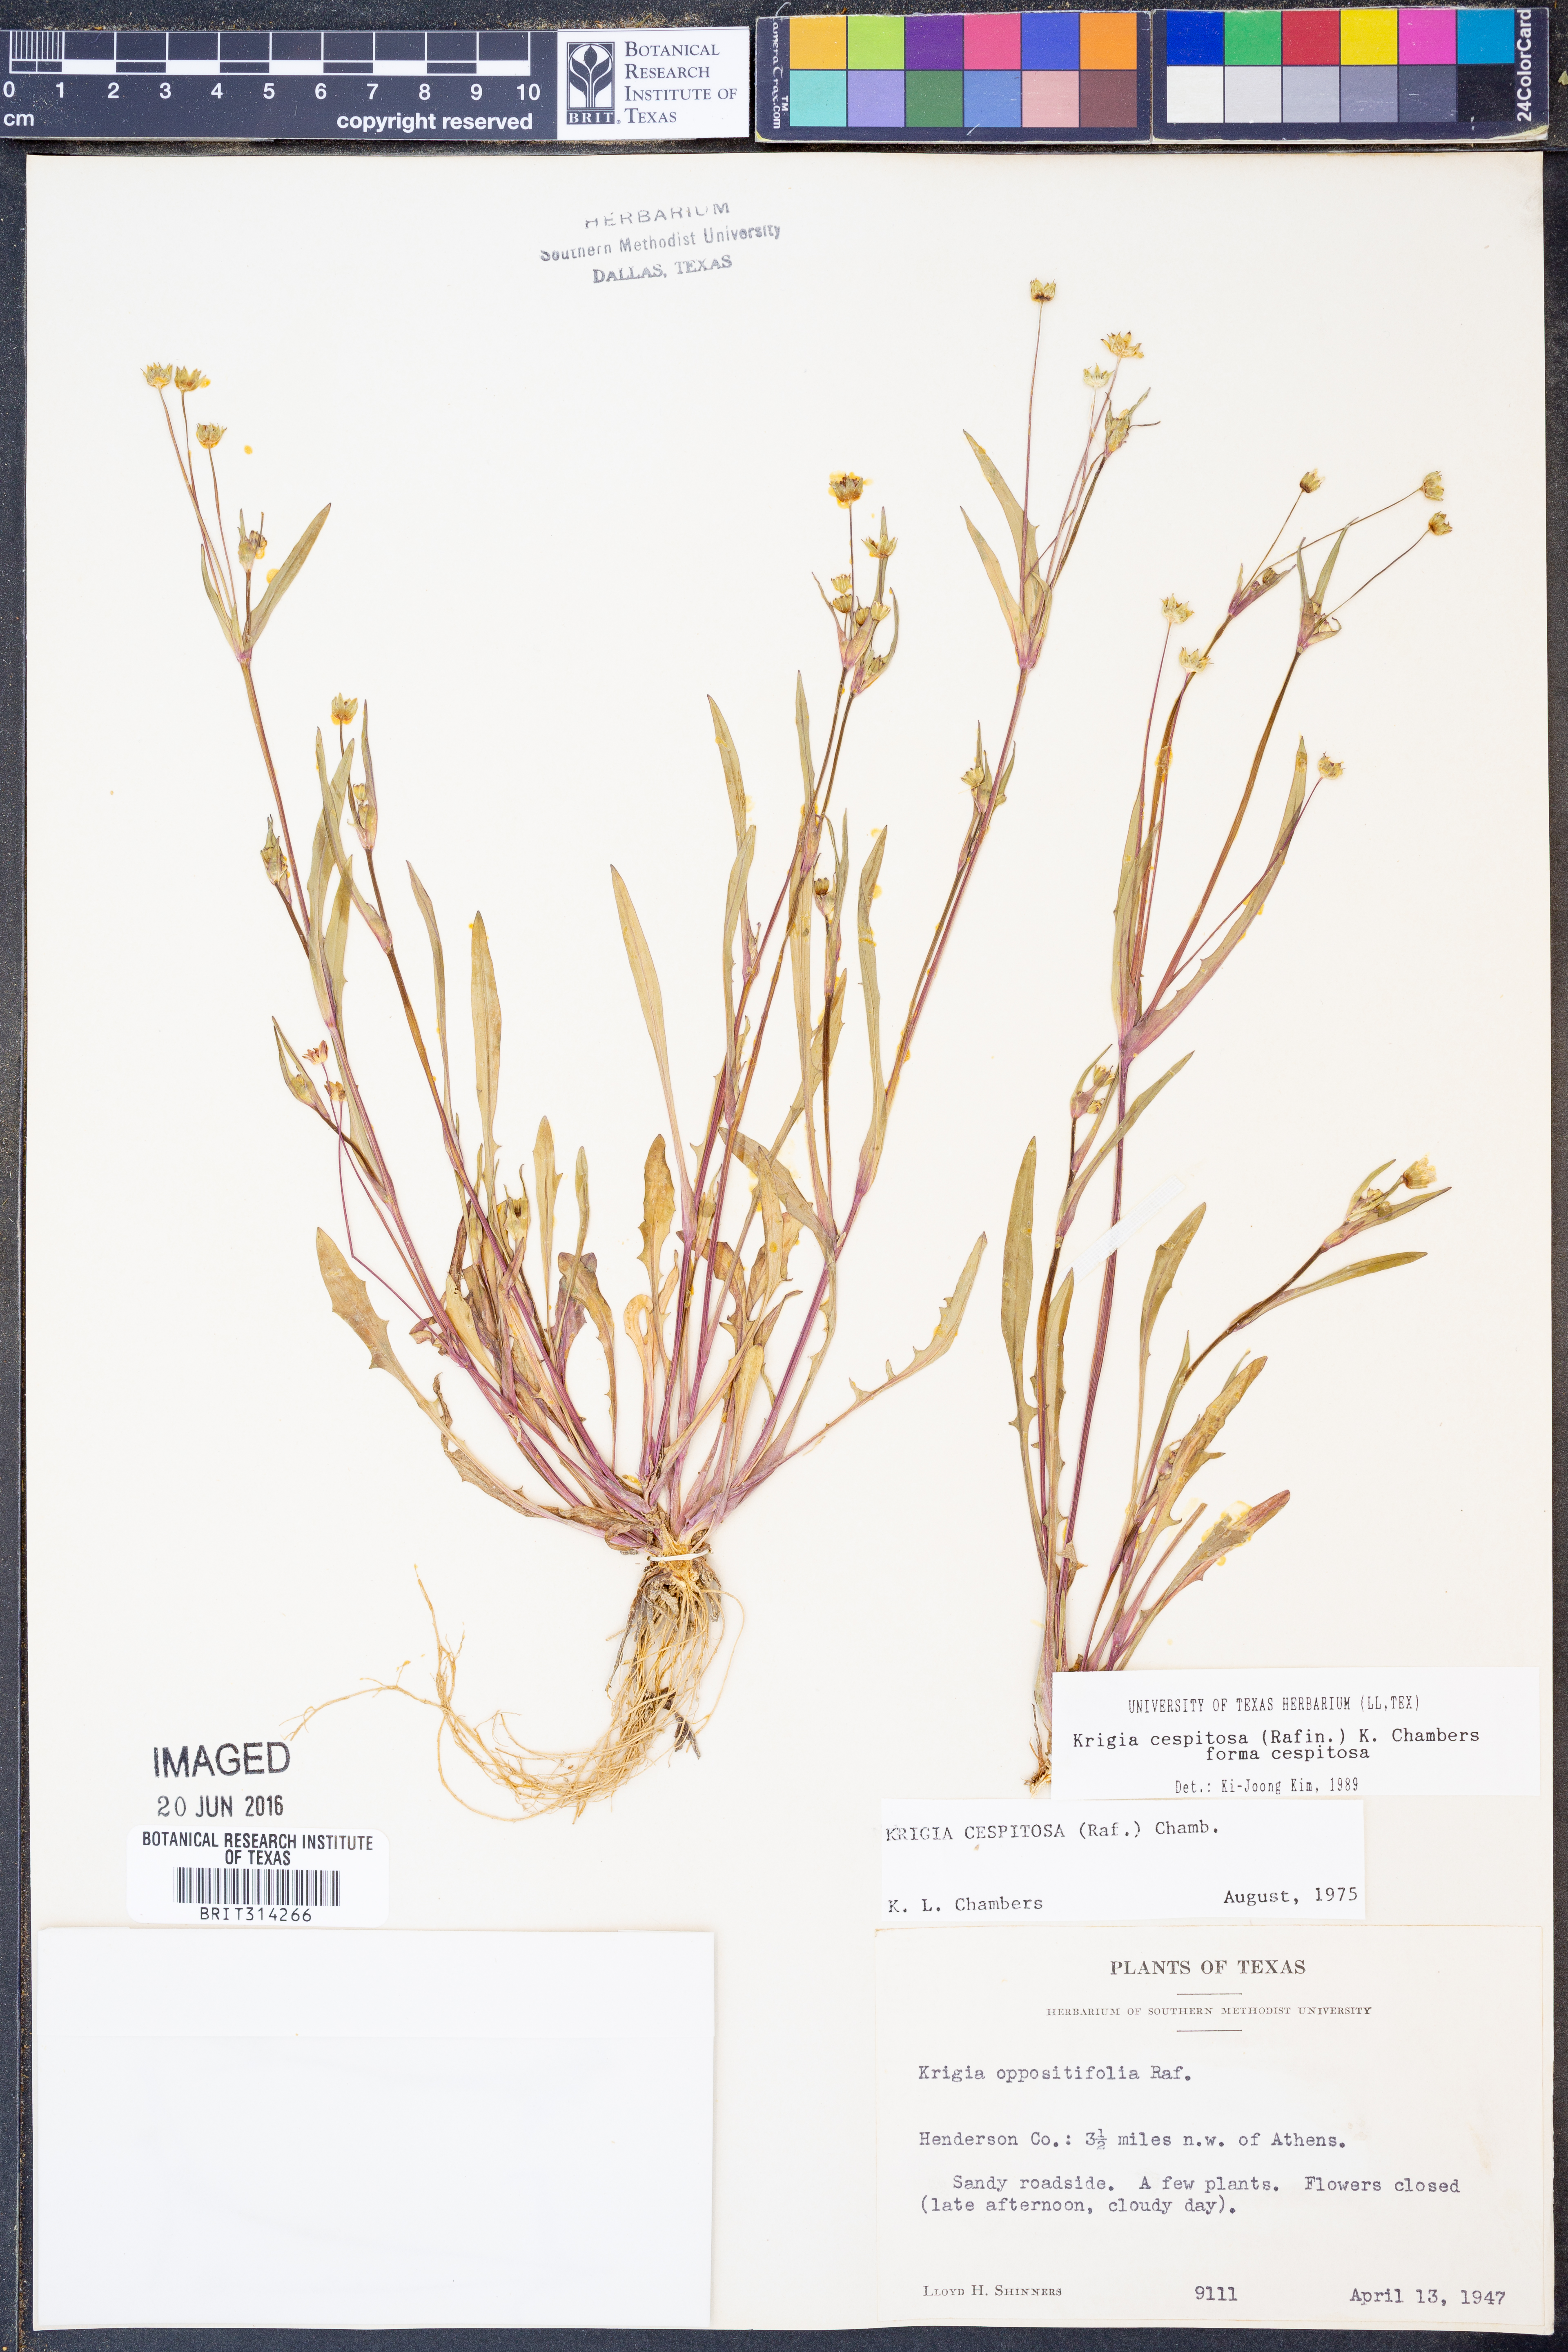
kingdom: Plantae
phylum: Tracheophyta
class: Magnoliopsida
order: Asterales
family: Asteraceae
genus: Krigia
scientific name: Krigia cespitosa
